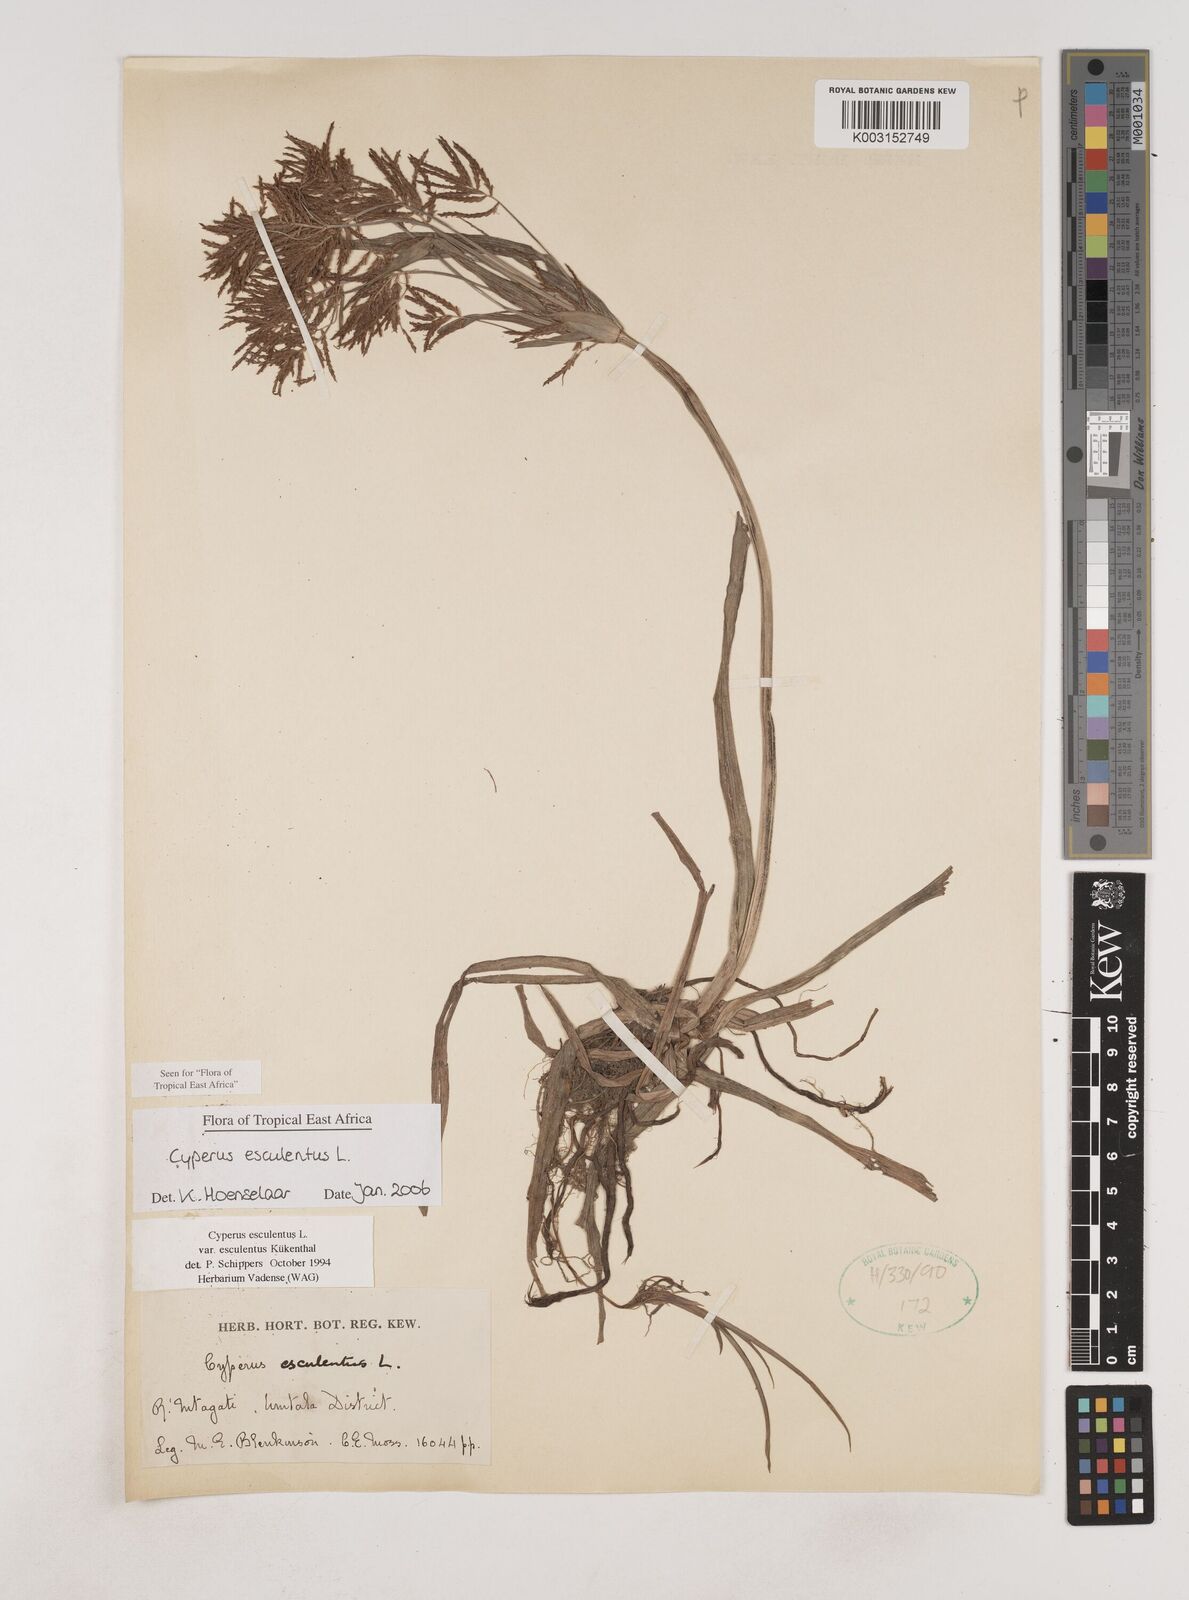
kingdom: Plantae
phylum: Tracheophyta
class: Liliopsida
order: Poales
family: Cyperaceae
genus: Cyperus
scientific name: Cyperus esculentus
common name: Yellow nutsedge
